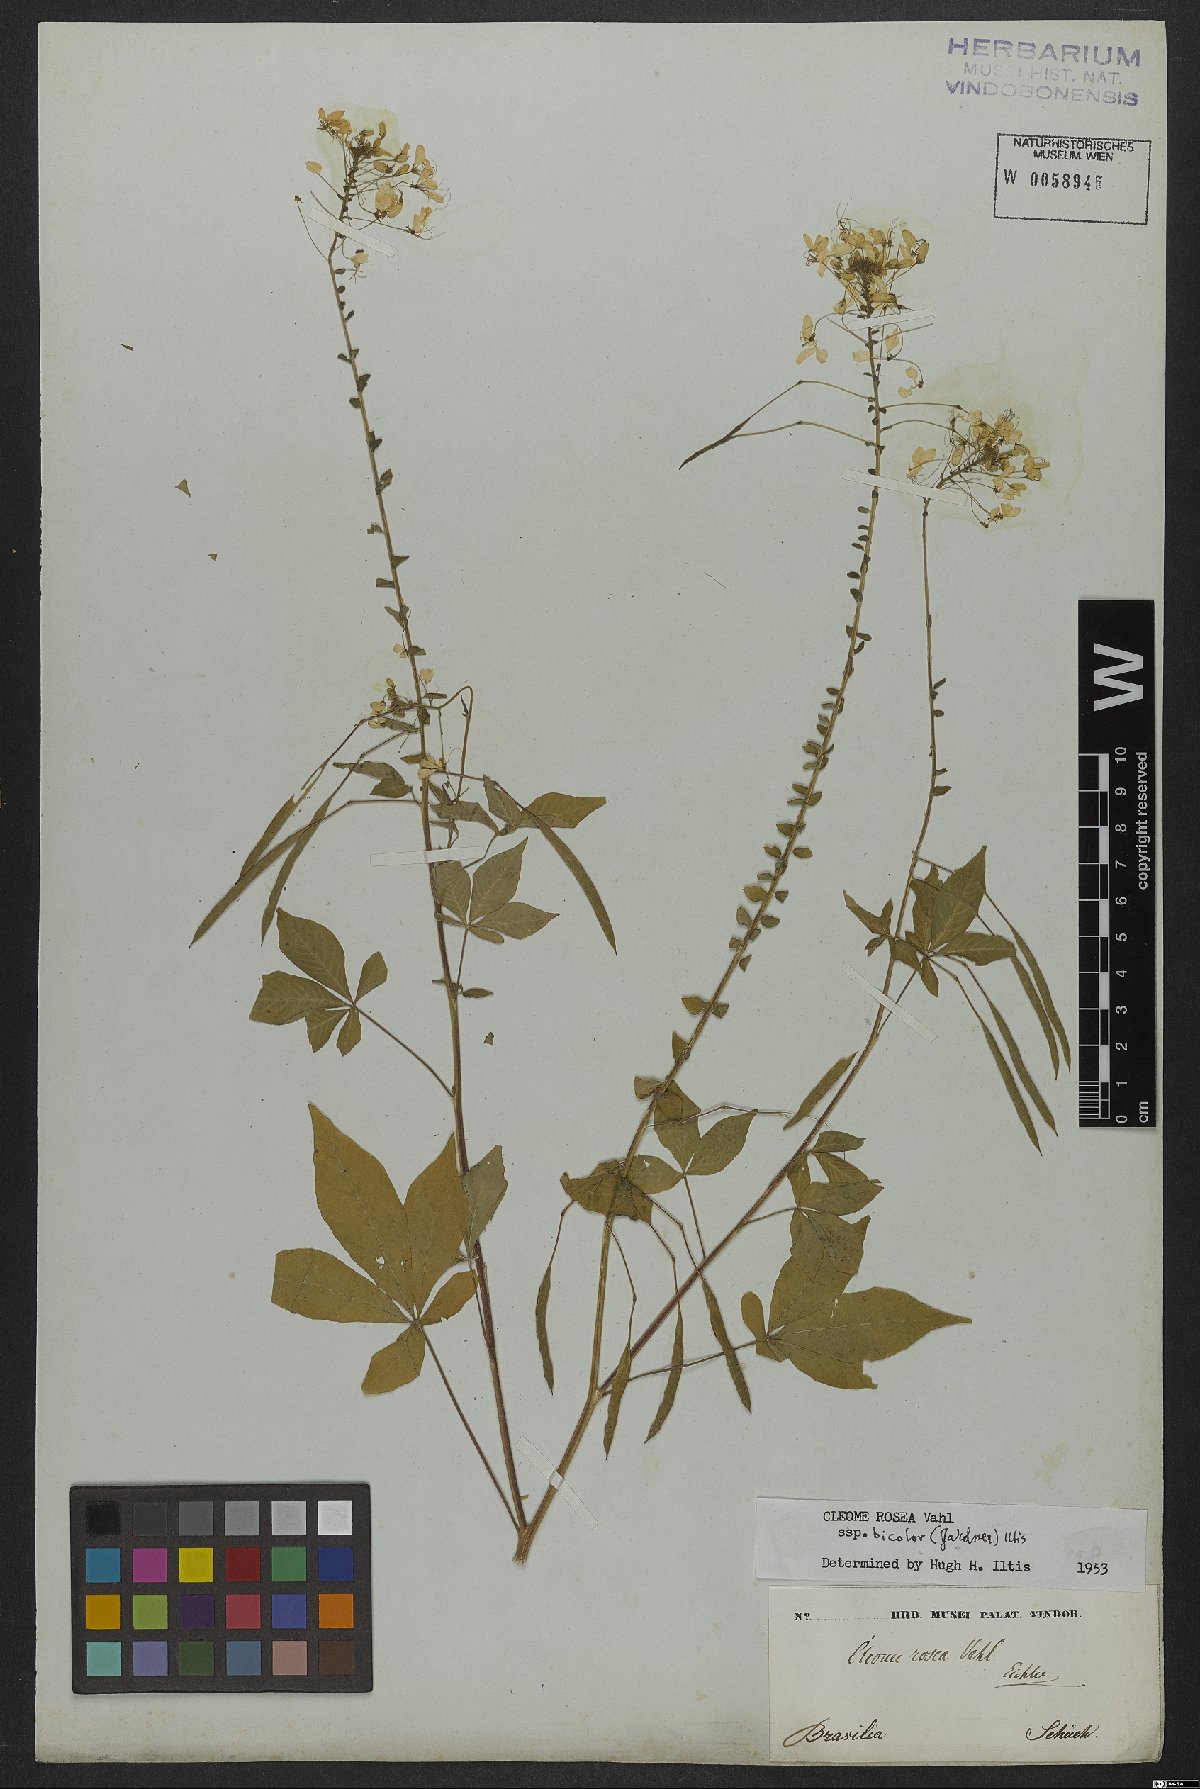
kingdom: Plantae
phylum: Tracheophyta
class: Magnoliopsida
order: Brassicales
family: Cleomaceae
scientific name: Cleomaceae
